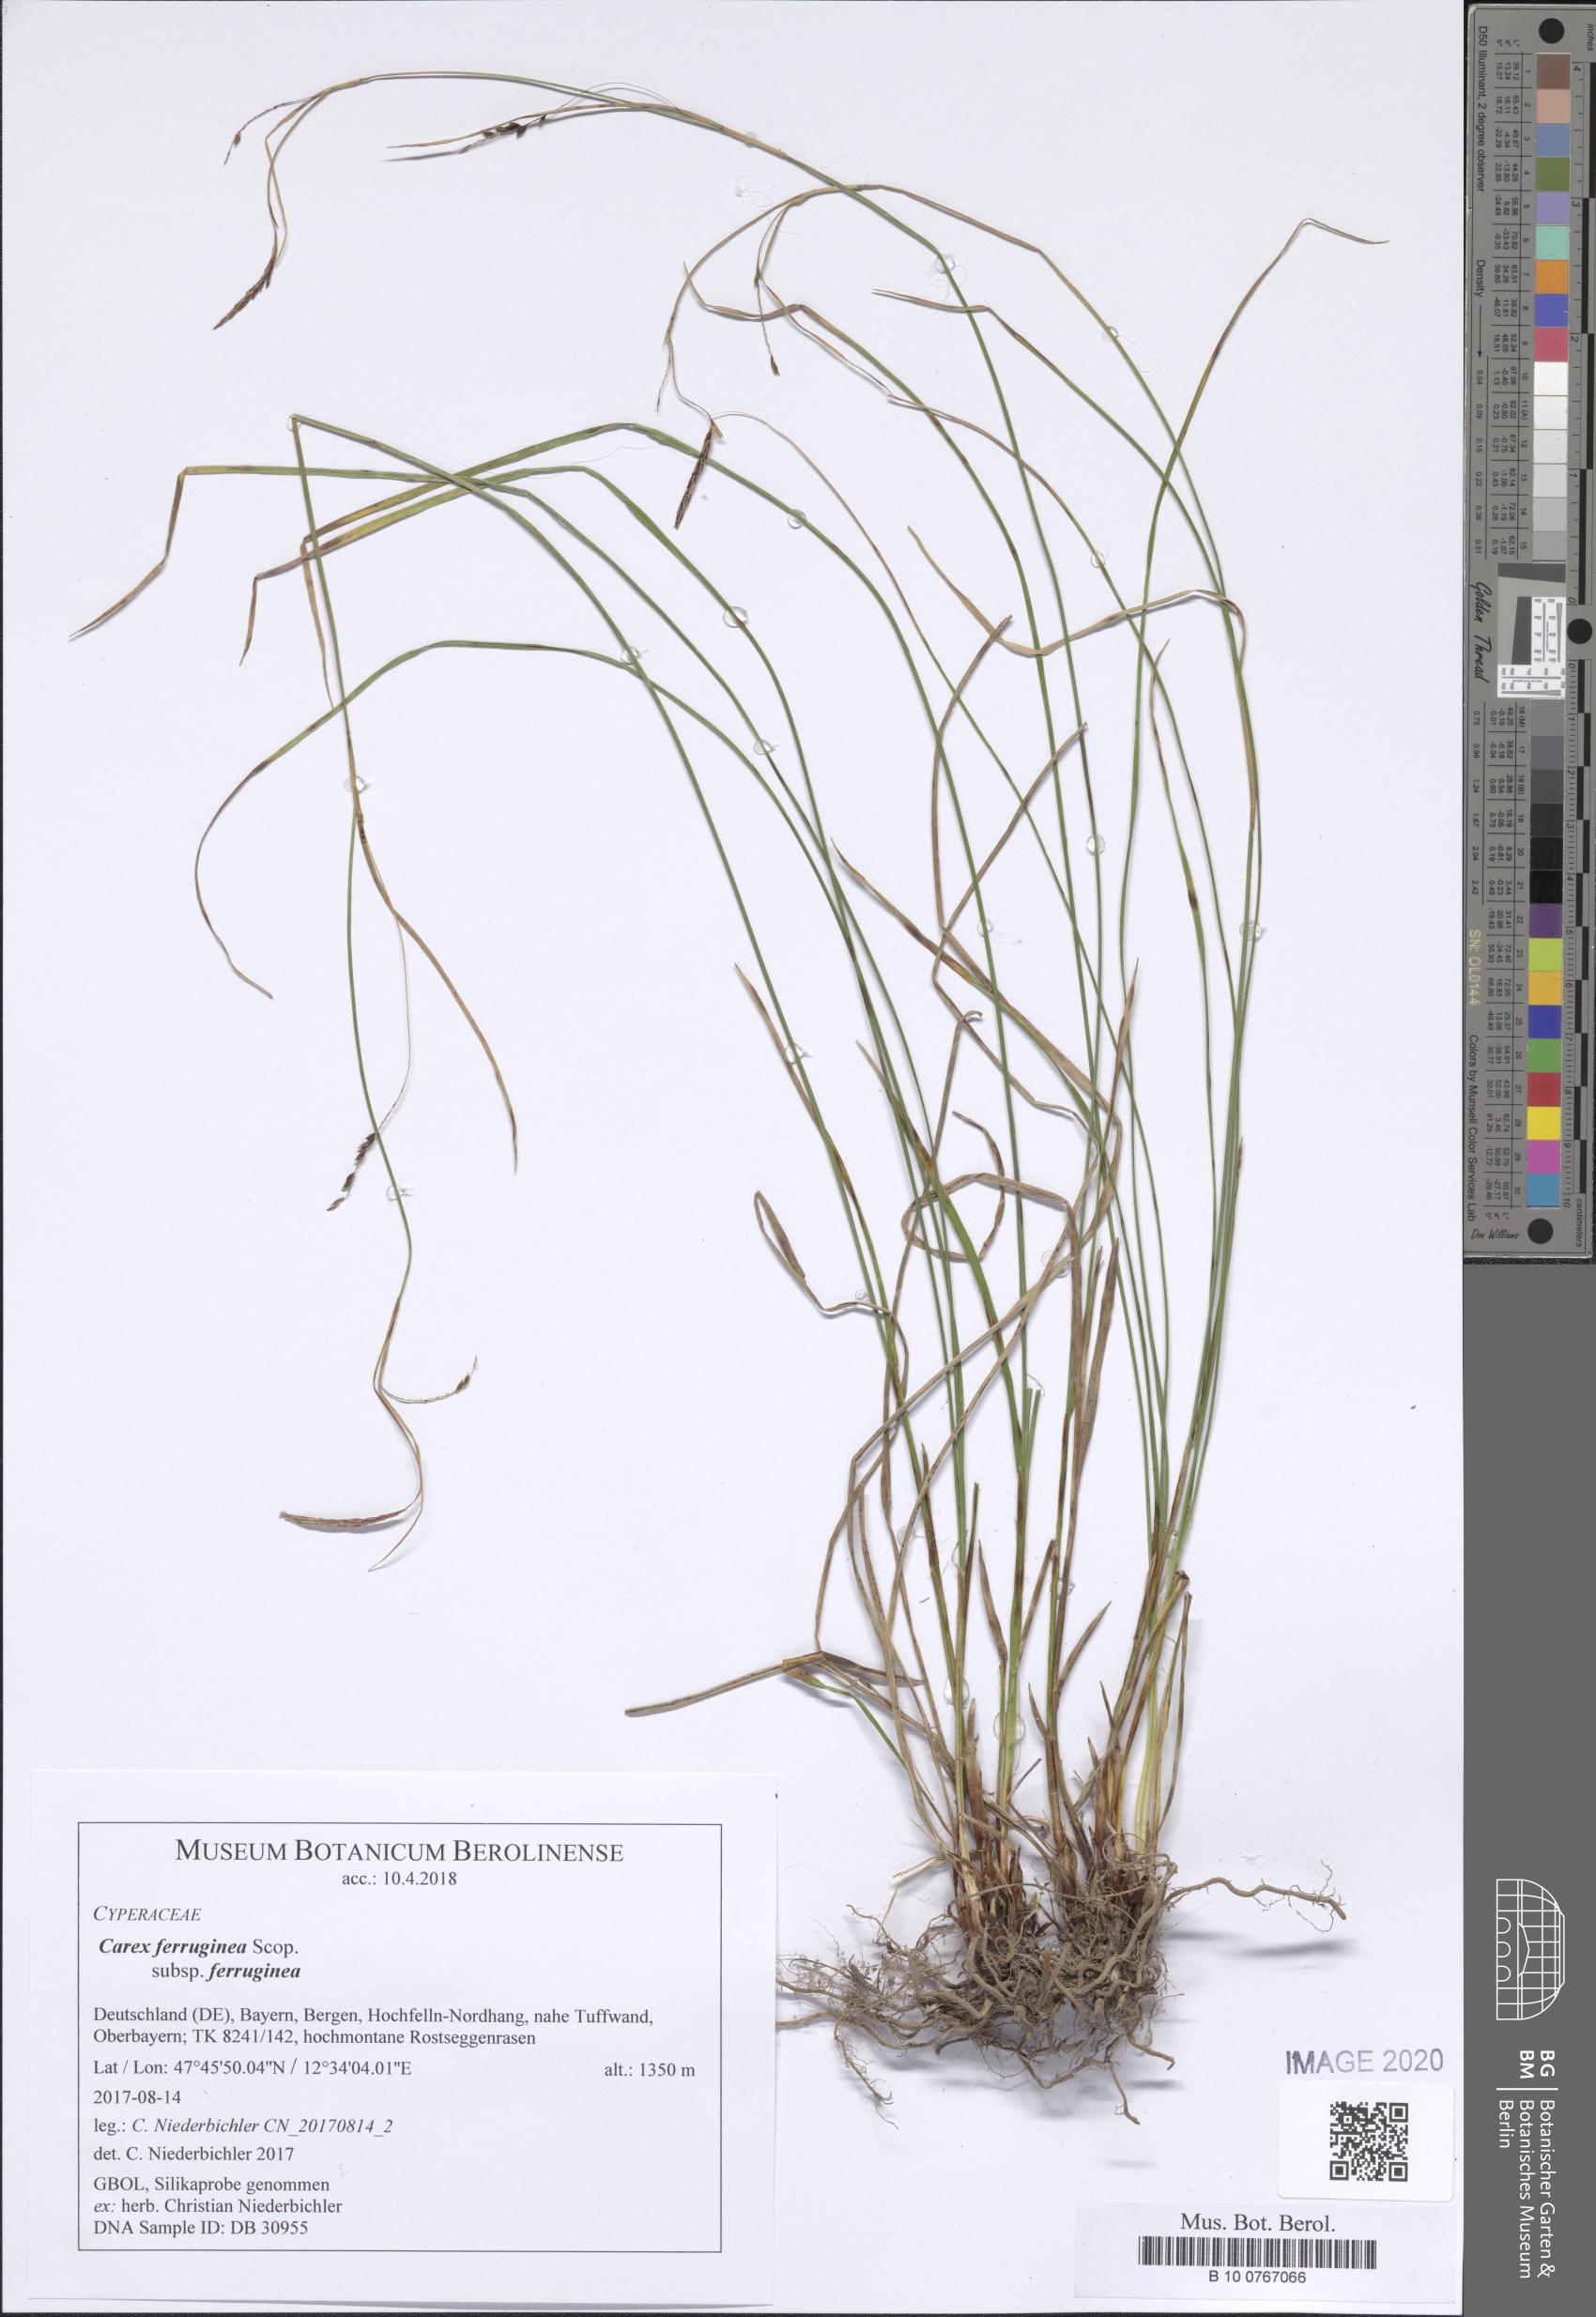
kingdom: Plantae
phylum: Tracheophyta
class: Liliopsida
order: Poales
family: Cyperaceae
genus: Carex
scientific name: Carex ferruginea
